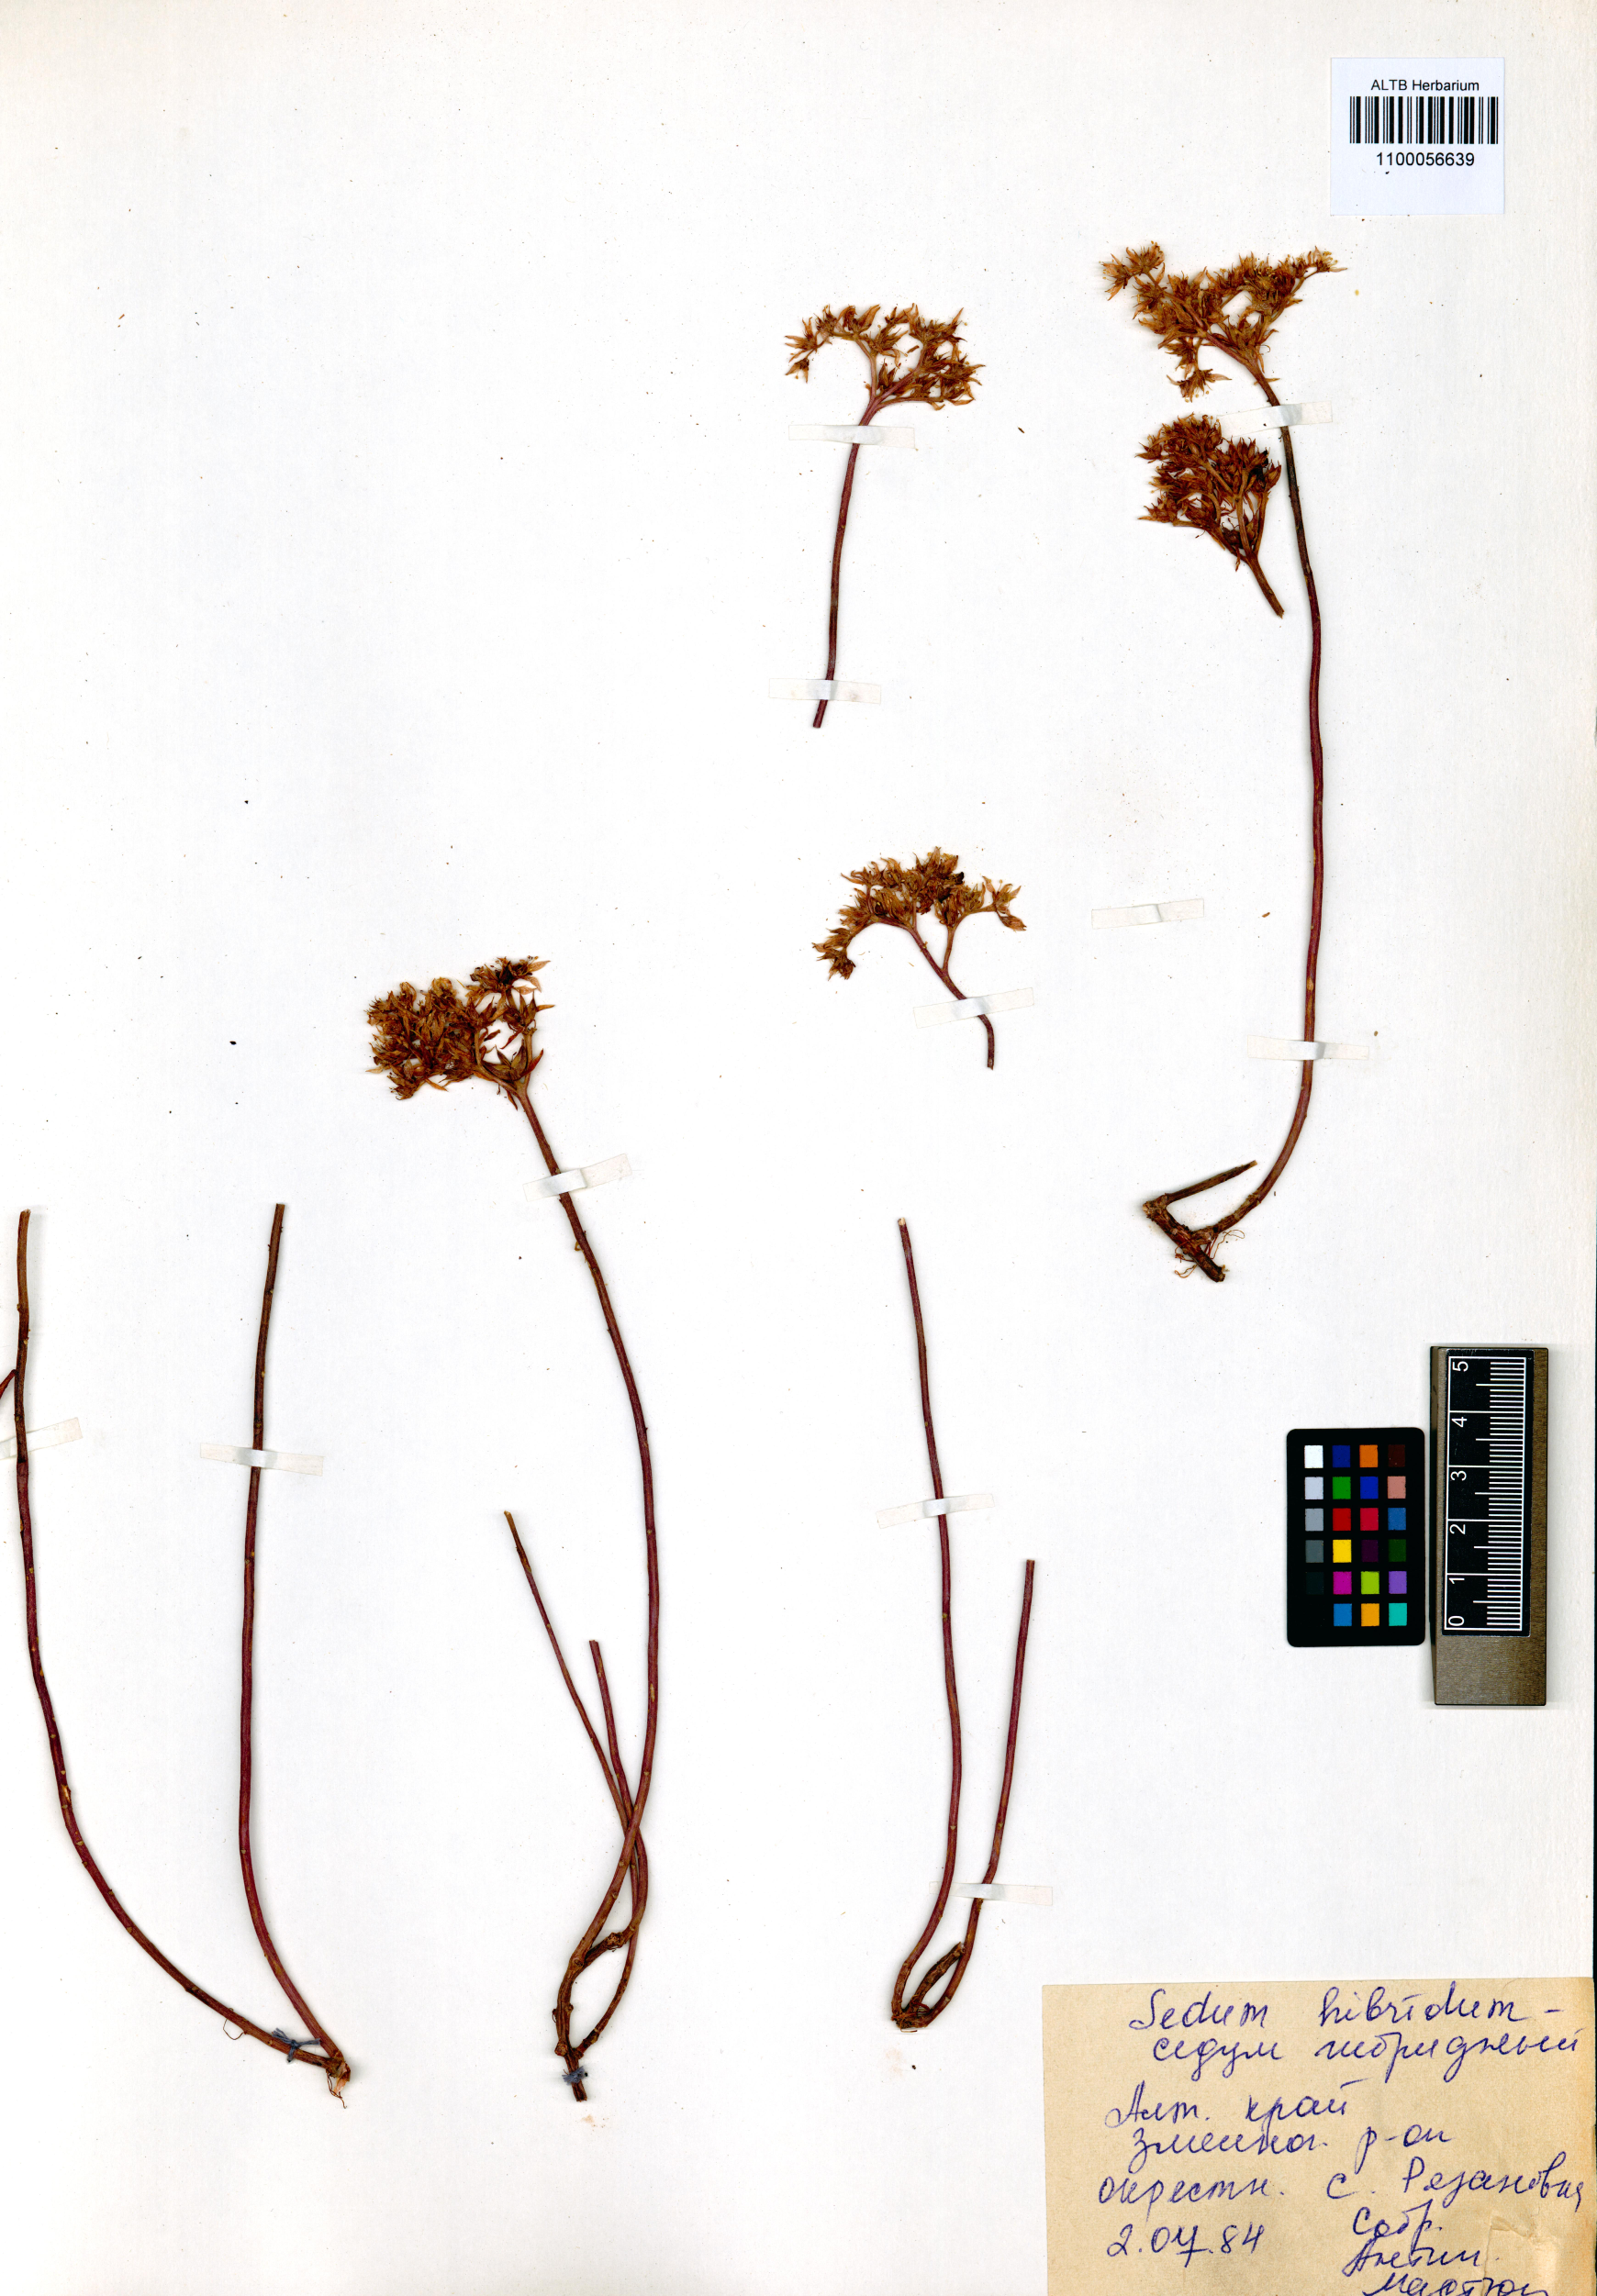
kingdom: Plantae
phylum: Tracheophyta
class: Magnoliopsida
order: Saxifragales
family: Crassulaceae
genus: Phedimus
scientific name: Phedimus hybridus
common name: Hybrid stonecrop
